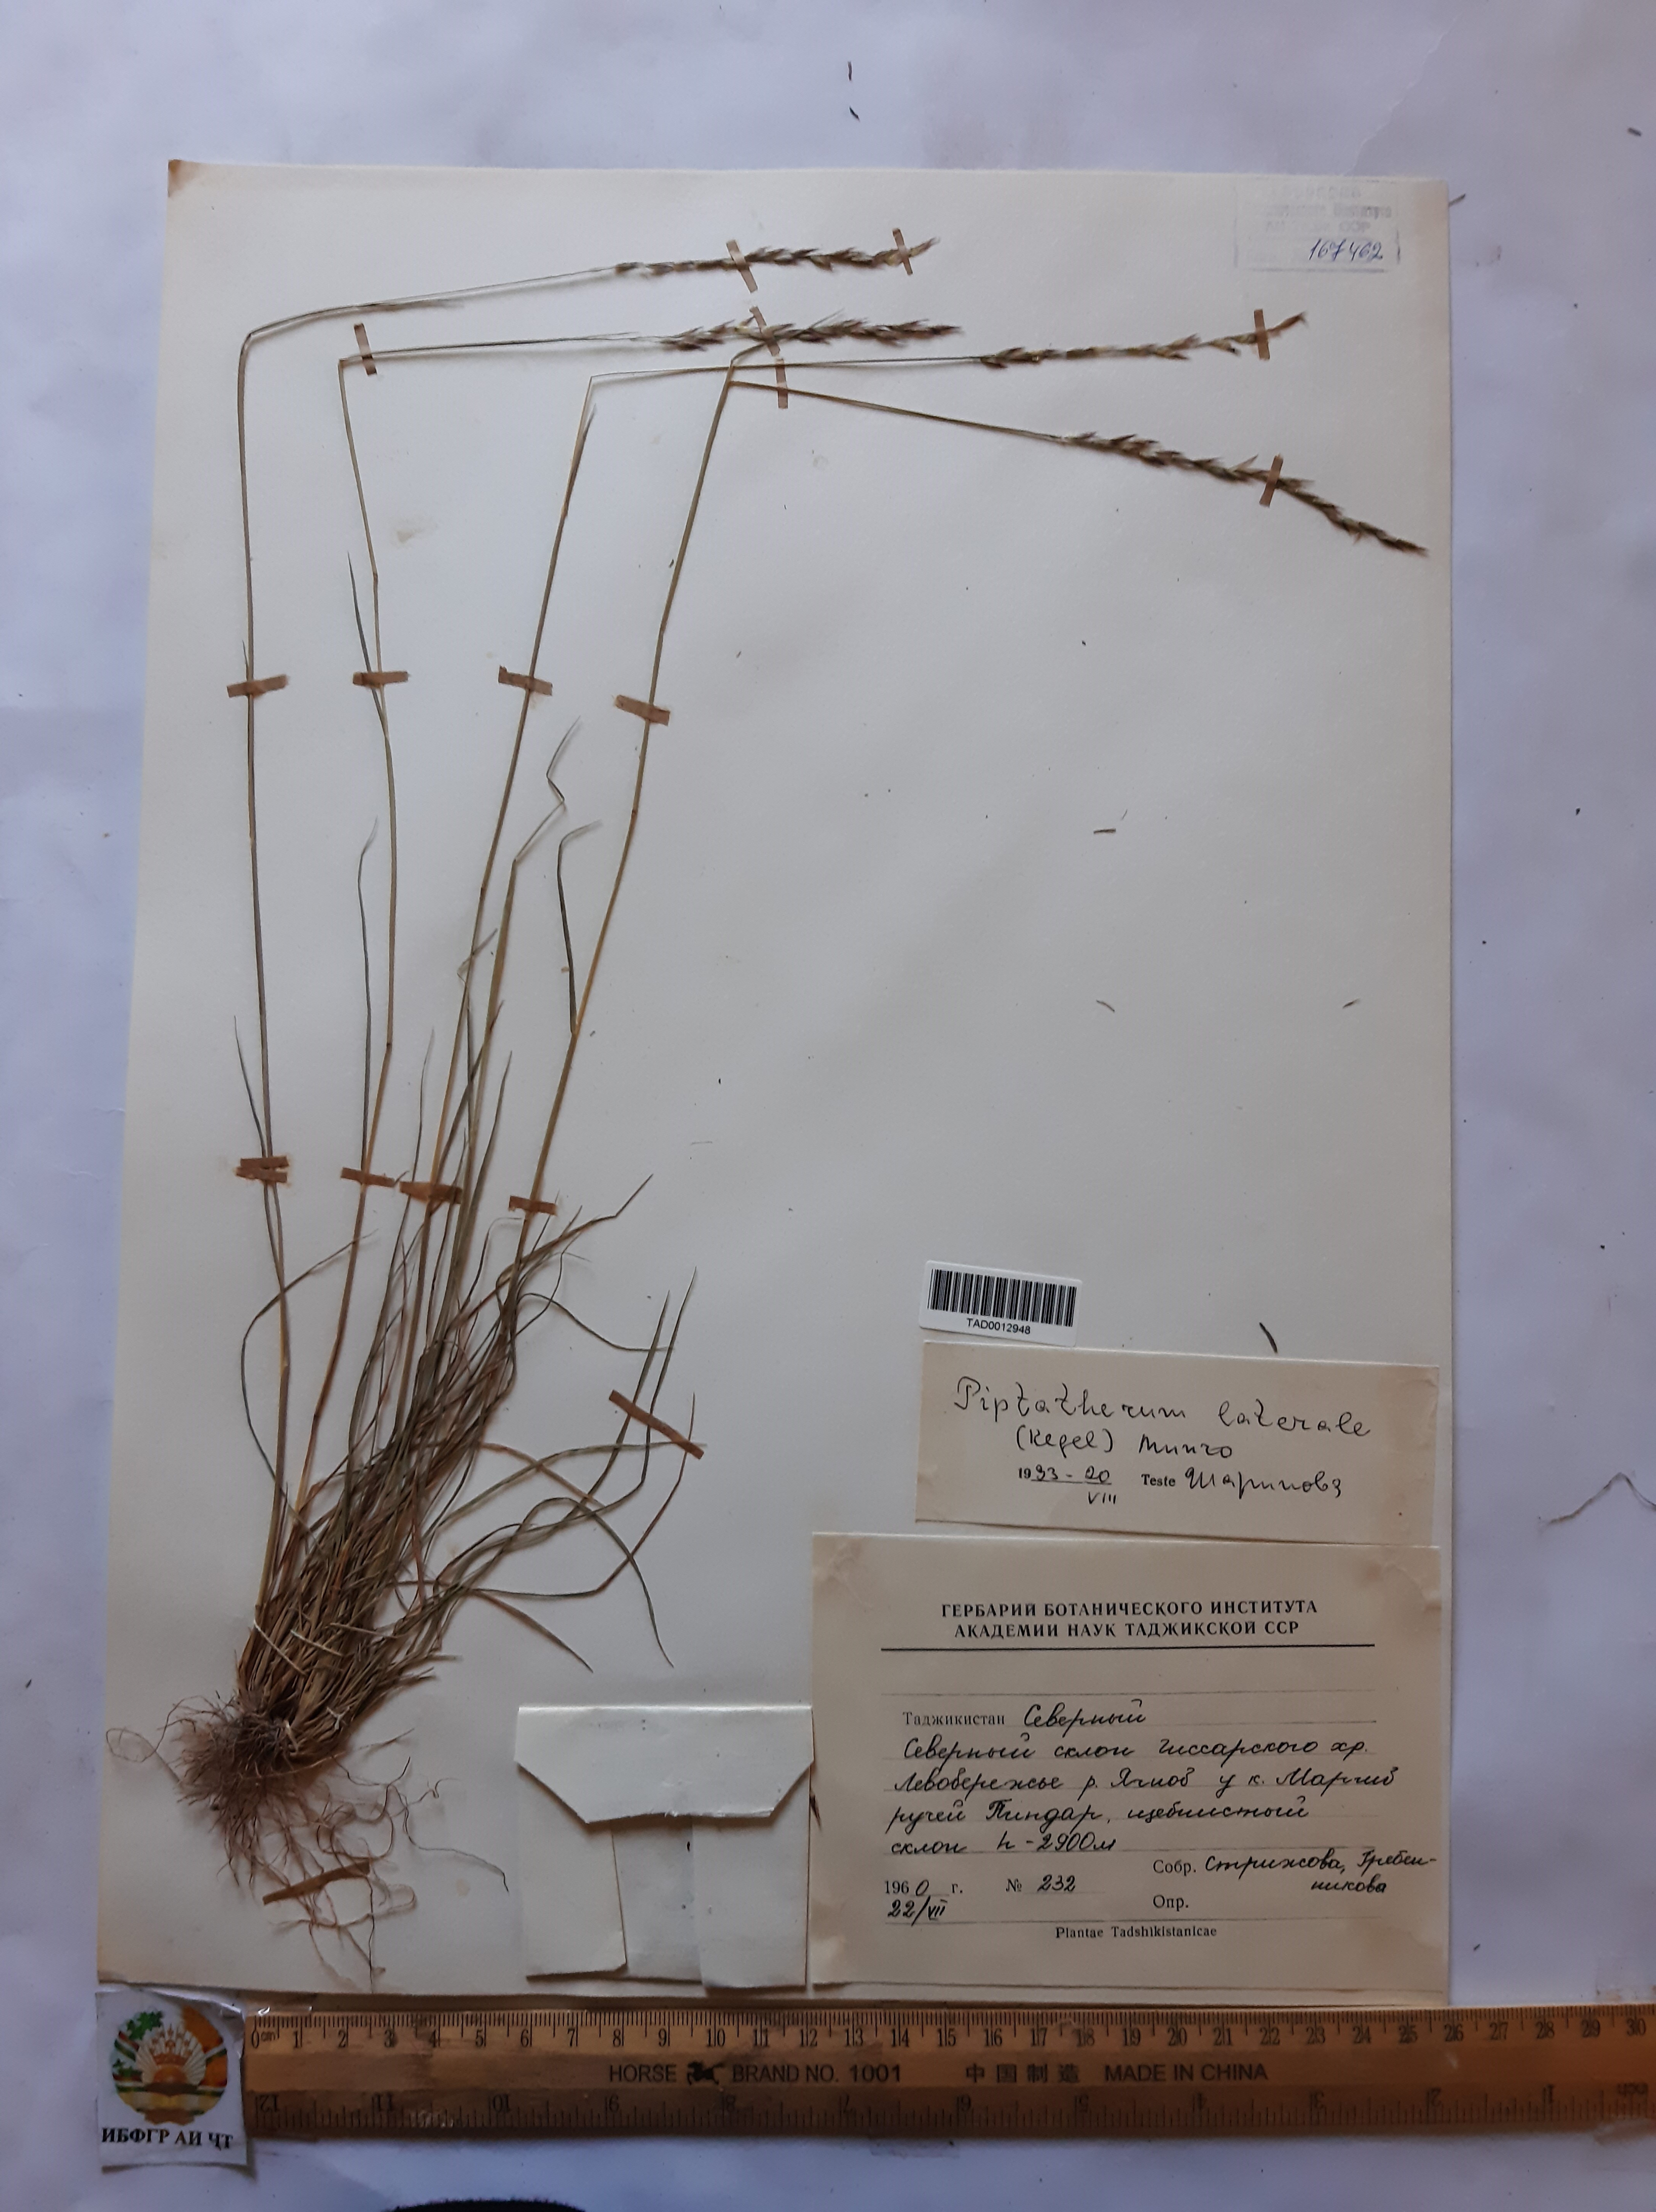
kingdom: Plantae
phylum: Tracheophyta
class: Liliopsida
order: Poales
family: Poaceae
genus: Piptatherum
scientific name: Piptatherum laterale
